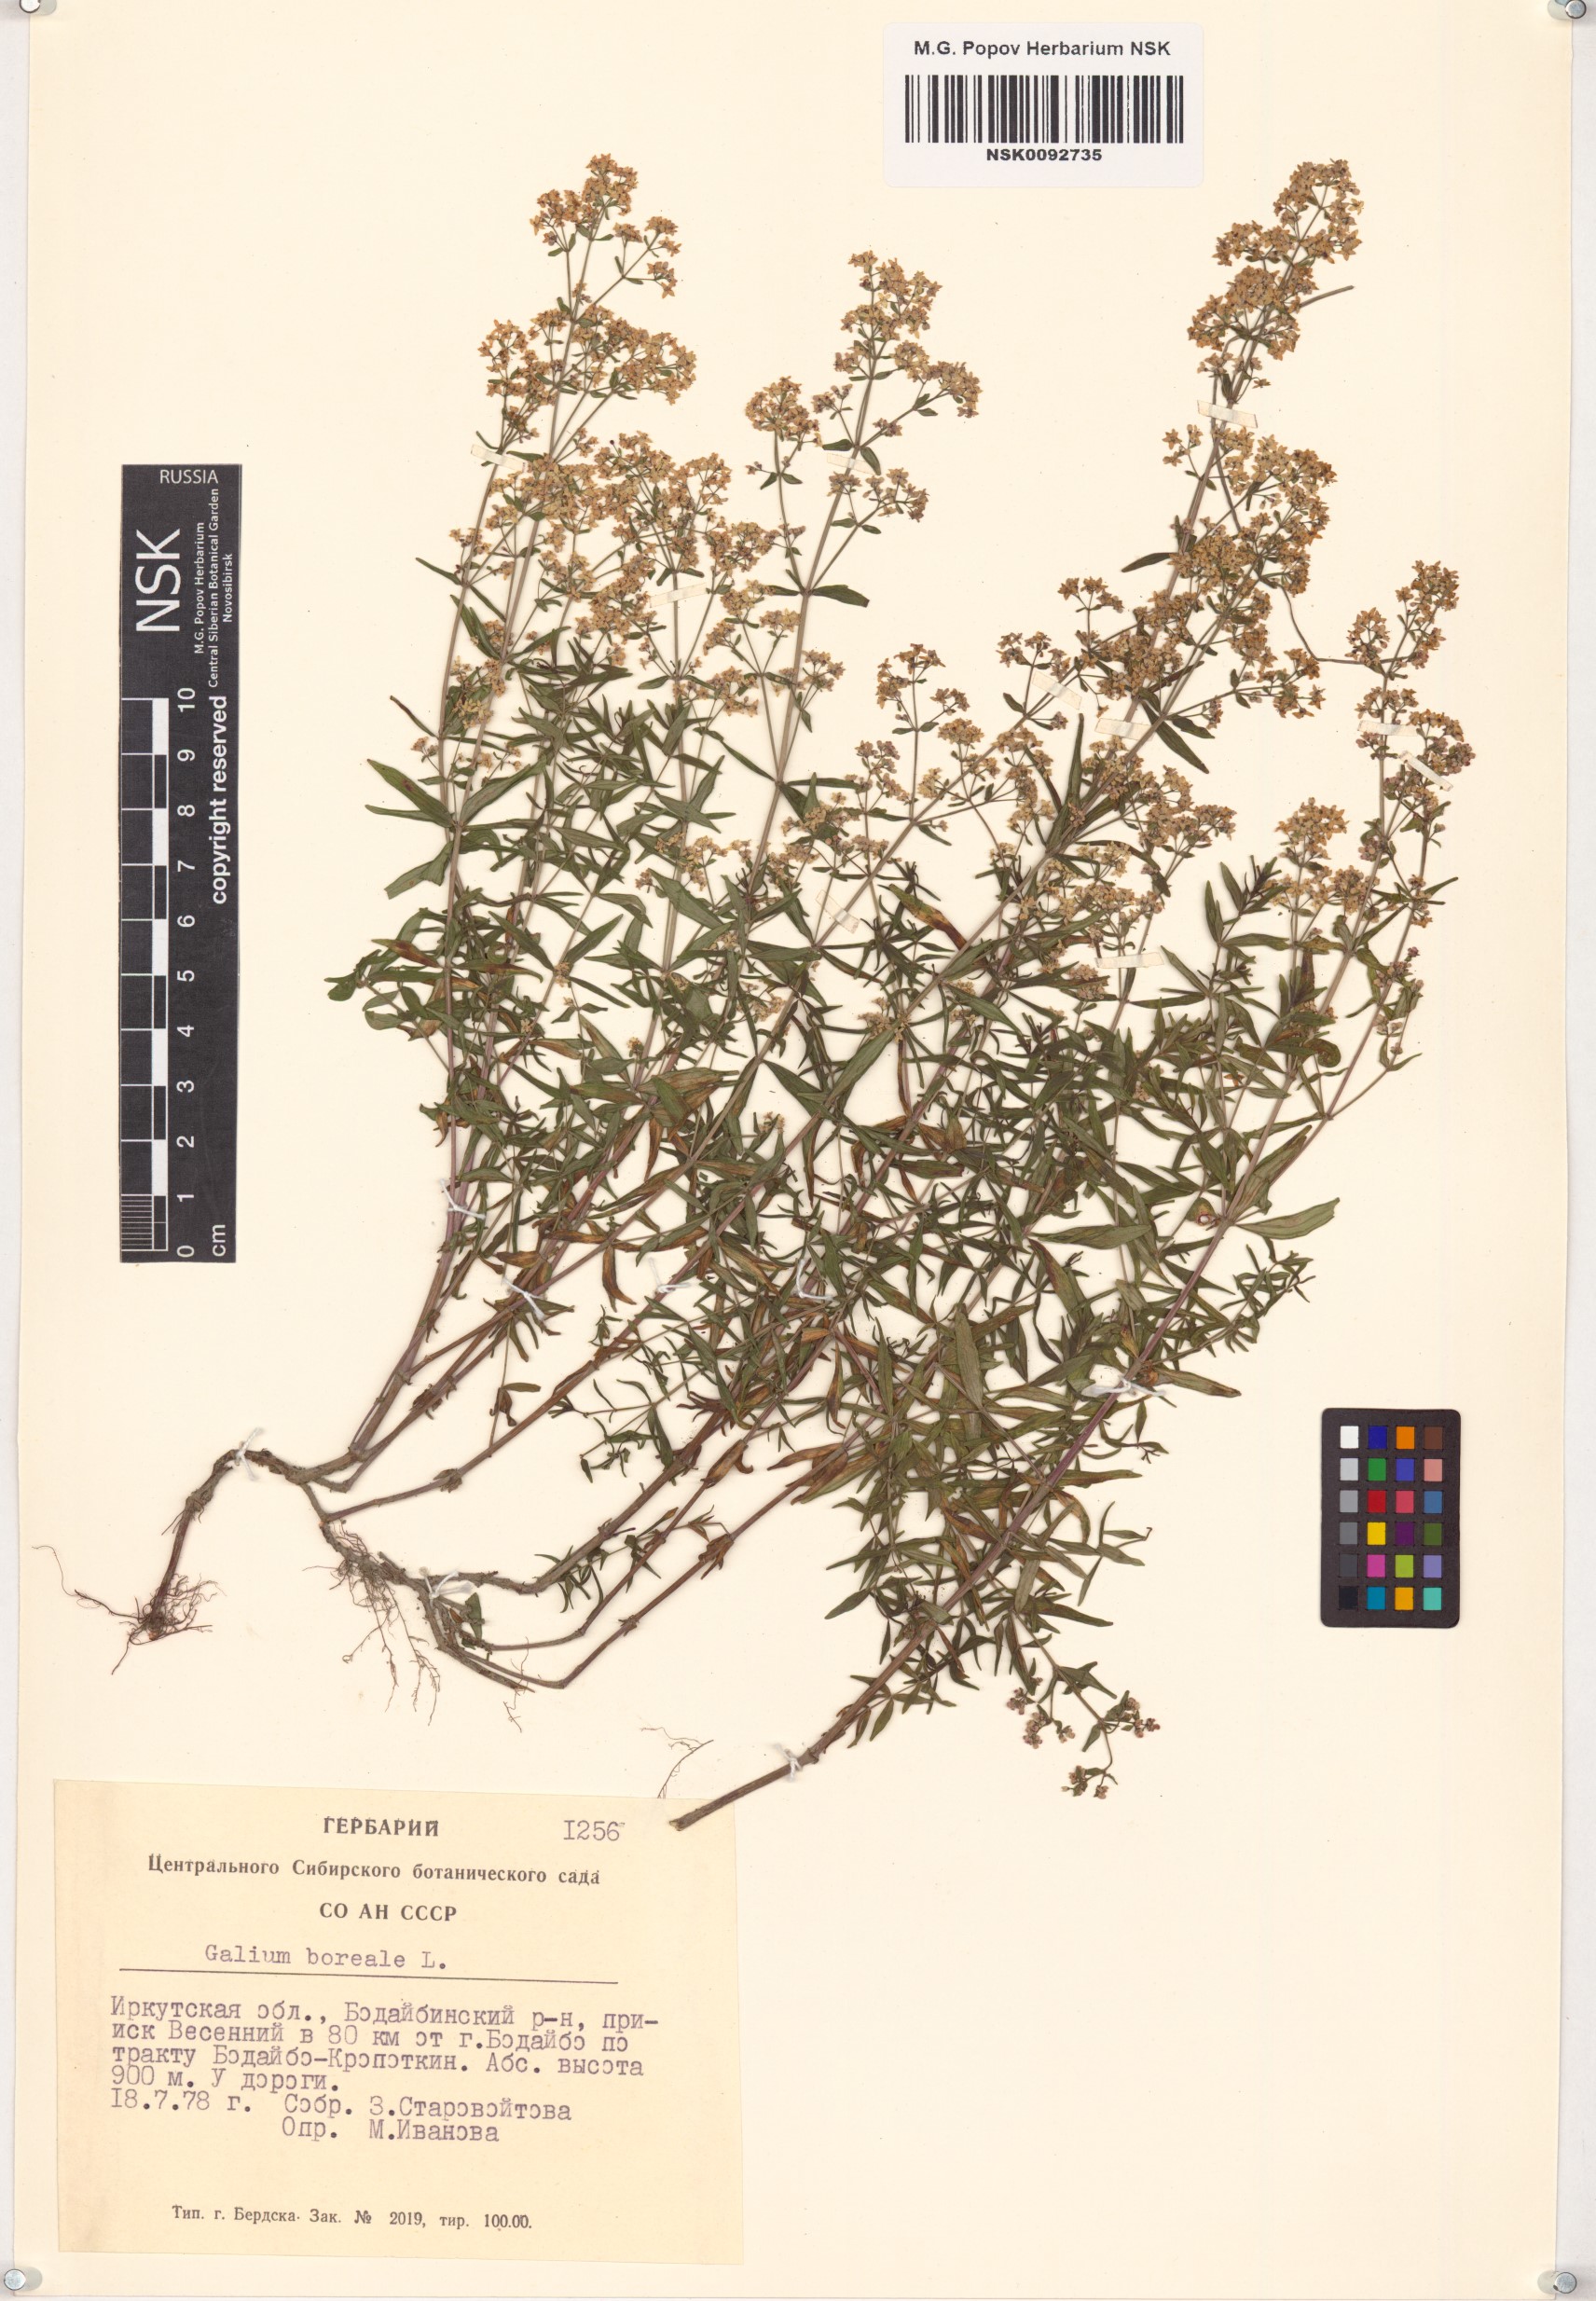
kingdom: Plantae
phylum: Tracheophyta
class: Magnoliopsida
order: Gentianales
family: Rubiaceae
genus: Galium
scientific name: Galium boreale
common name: Northern bedstraw
